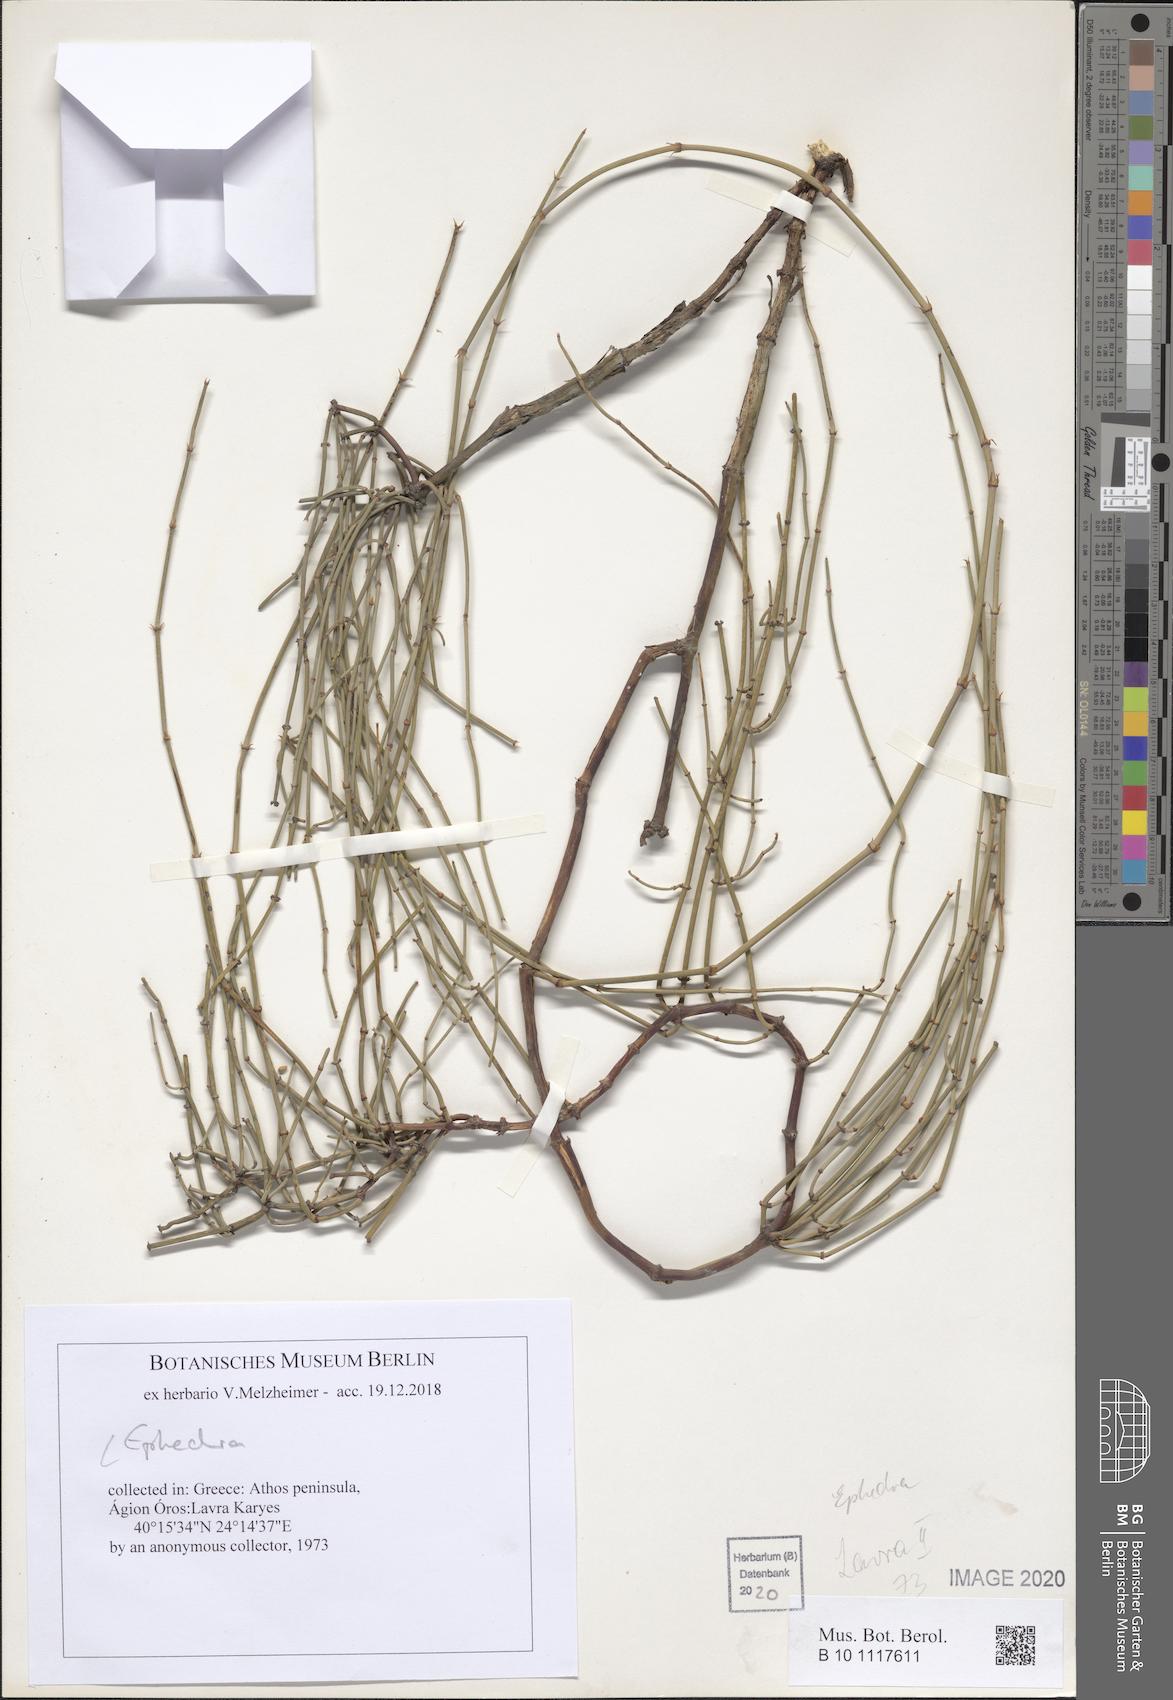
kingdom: Plantae
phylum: Tracheophyta
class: Gnetopsida
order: Ephedrales
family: Ephedraceae
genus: Ephedra
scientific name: Ephedra
